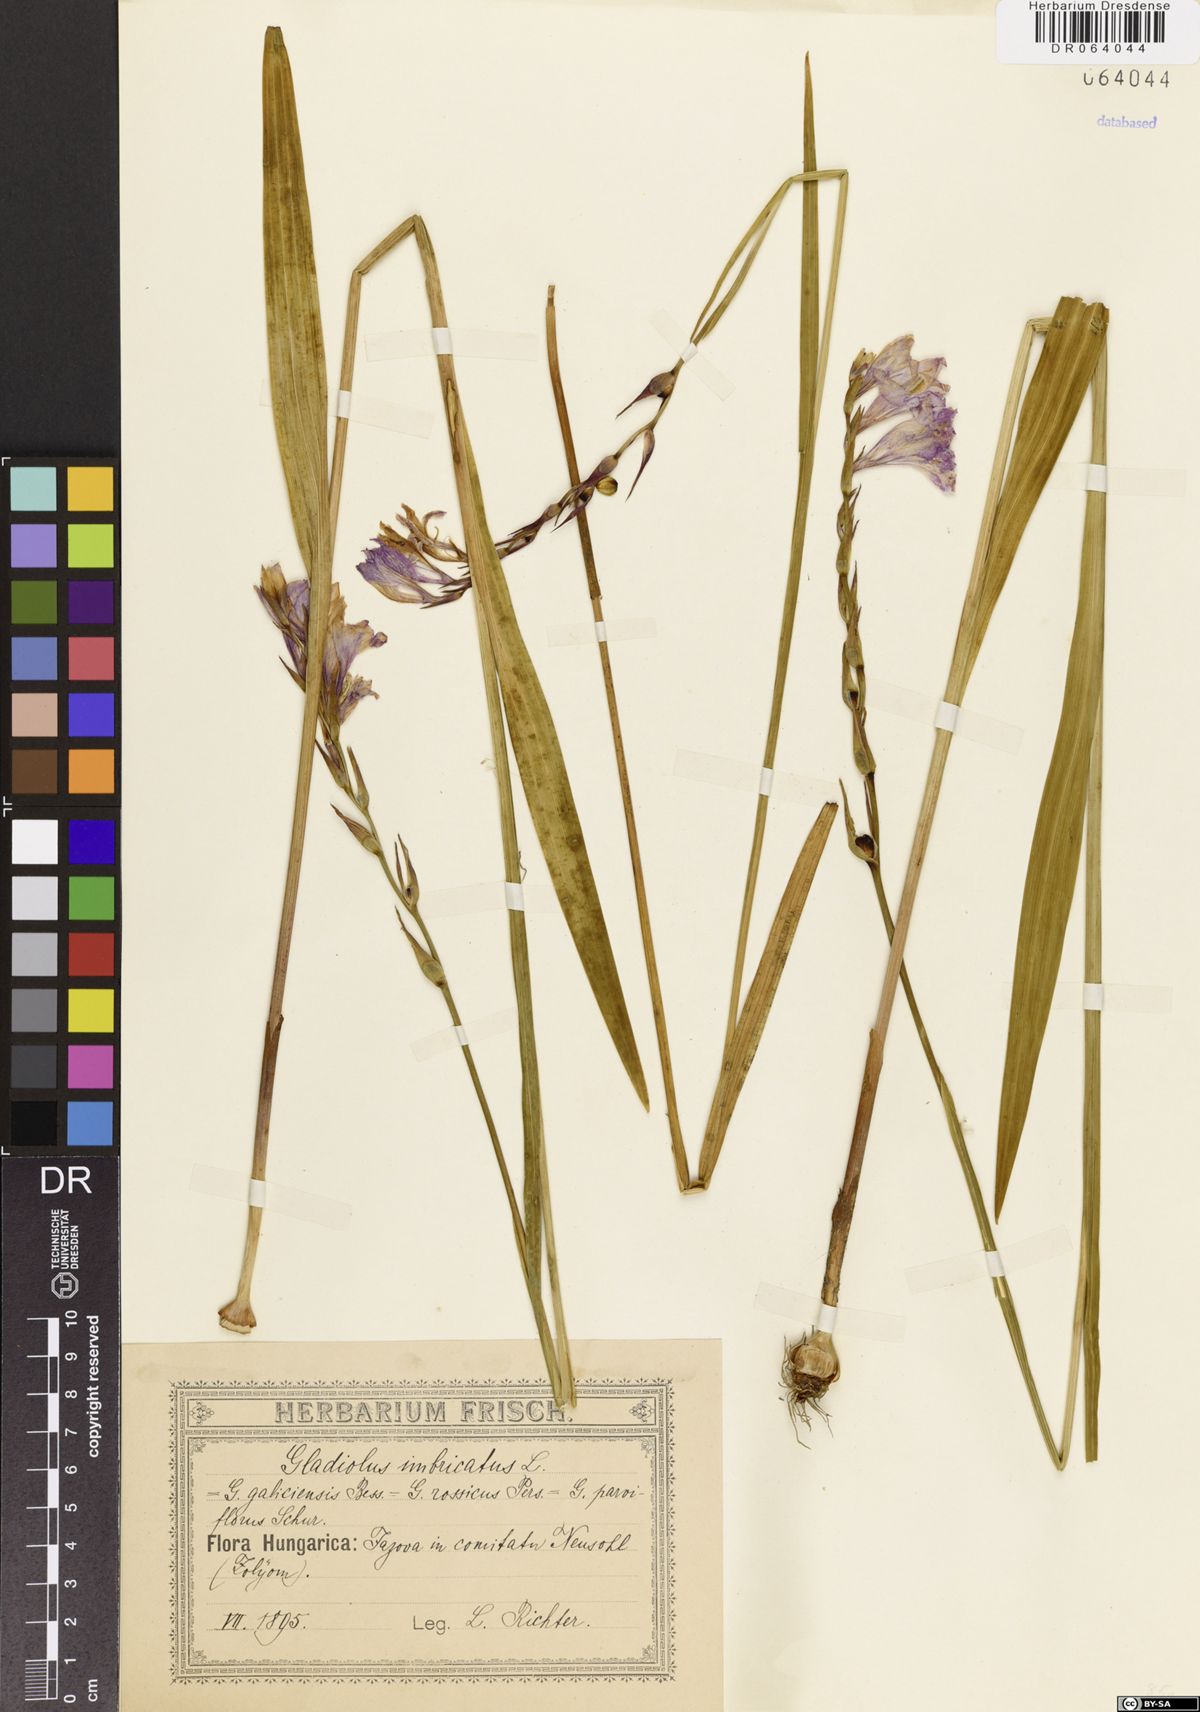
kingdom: Plantae
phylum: Tracheophyta
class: Liliopsida
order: Asparagales
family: Iridaceae
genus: Gladiolus
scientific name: Gladiolus imbricatus
